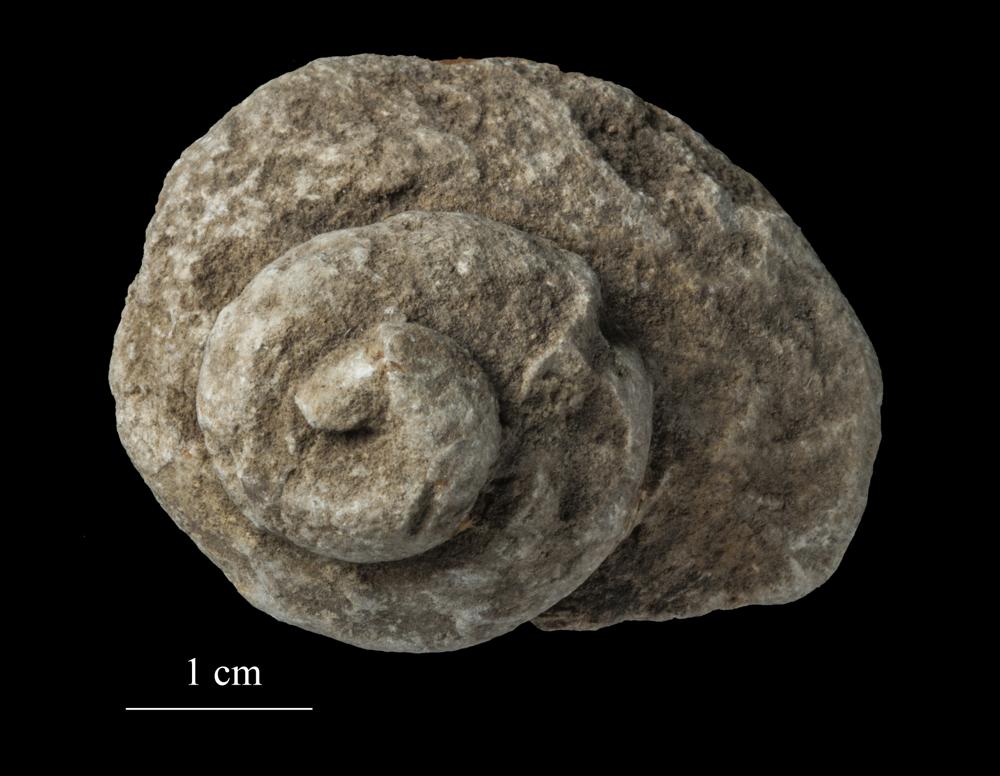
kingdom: Animalia
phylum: Mollusca
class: Gastropoda
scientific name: Gastropoda
